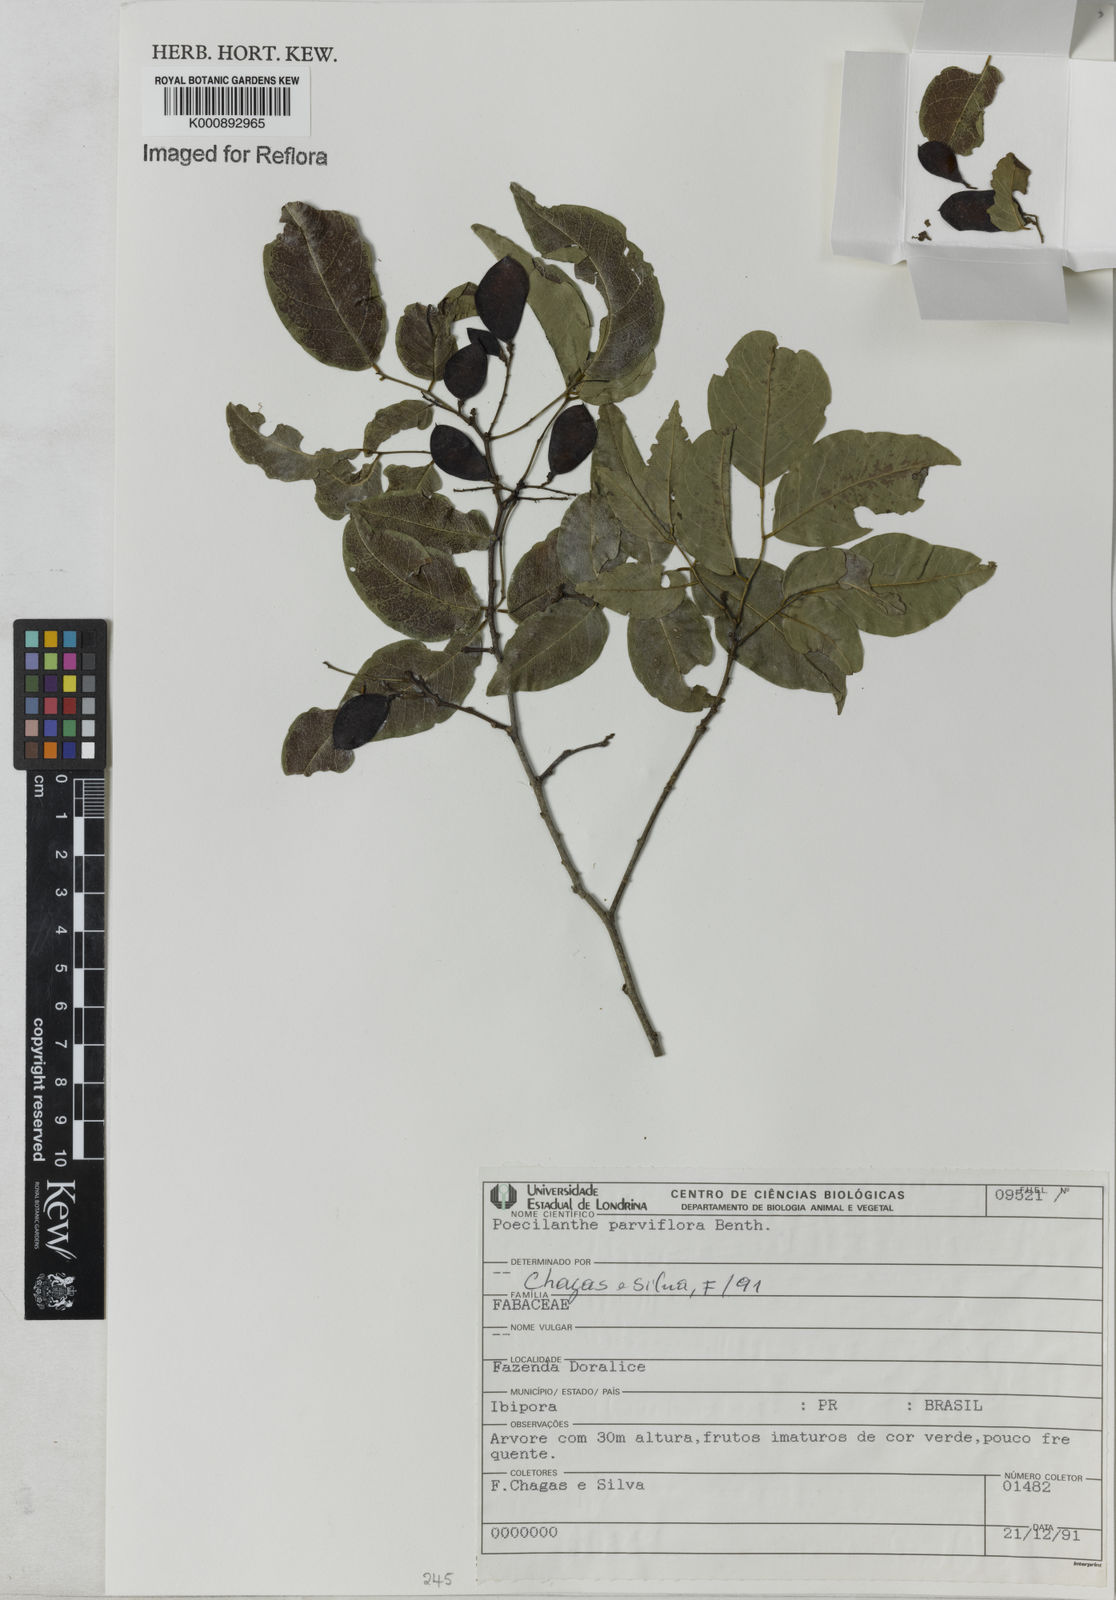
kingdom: Plantae
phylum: Tracheophyta
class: Magnoliopsida
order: Fabales
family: Fabaceae
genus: Poecilanthe
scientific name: Poecilanthe parviflora
